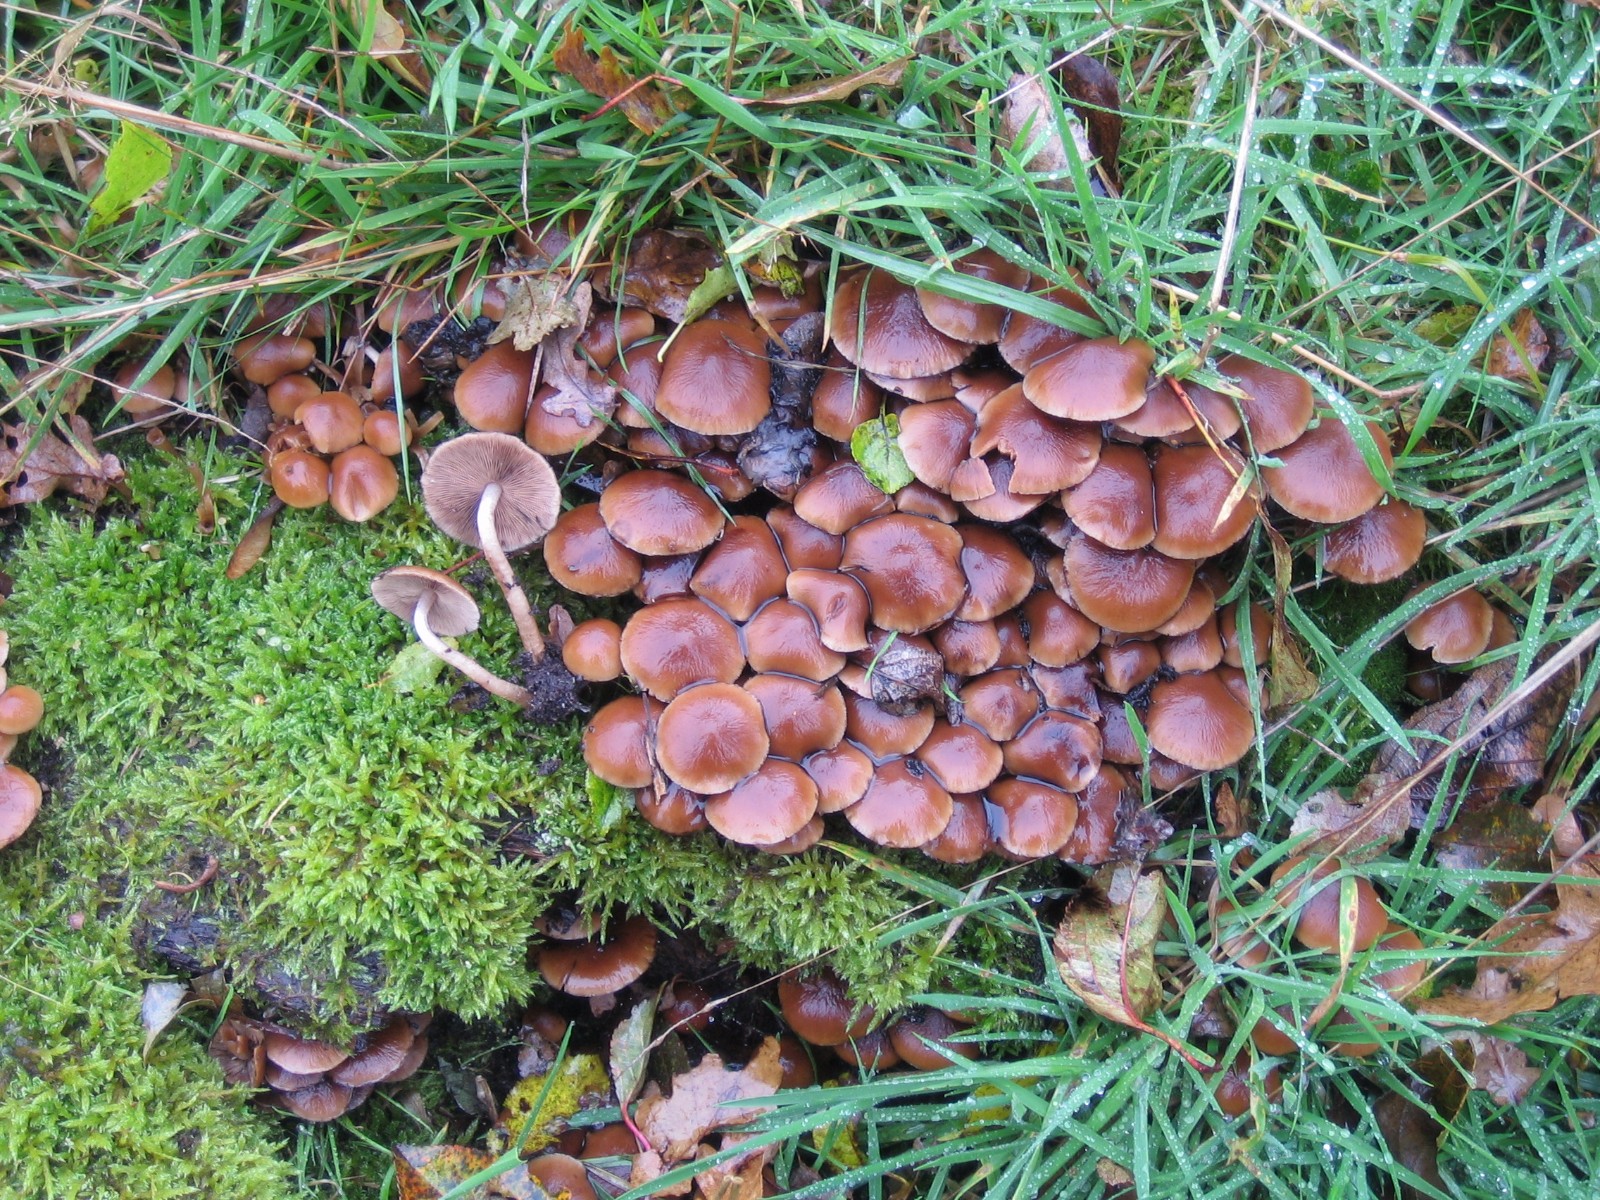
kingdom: Fungi
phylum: Basidiomycota
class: Agaricomycetes
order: Agaricales
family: Psathyrellaceae
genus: Psathyrella
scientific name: Psathyrella piluliformis
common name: lysstokket mørkhat
